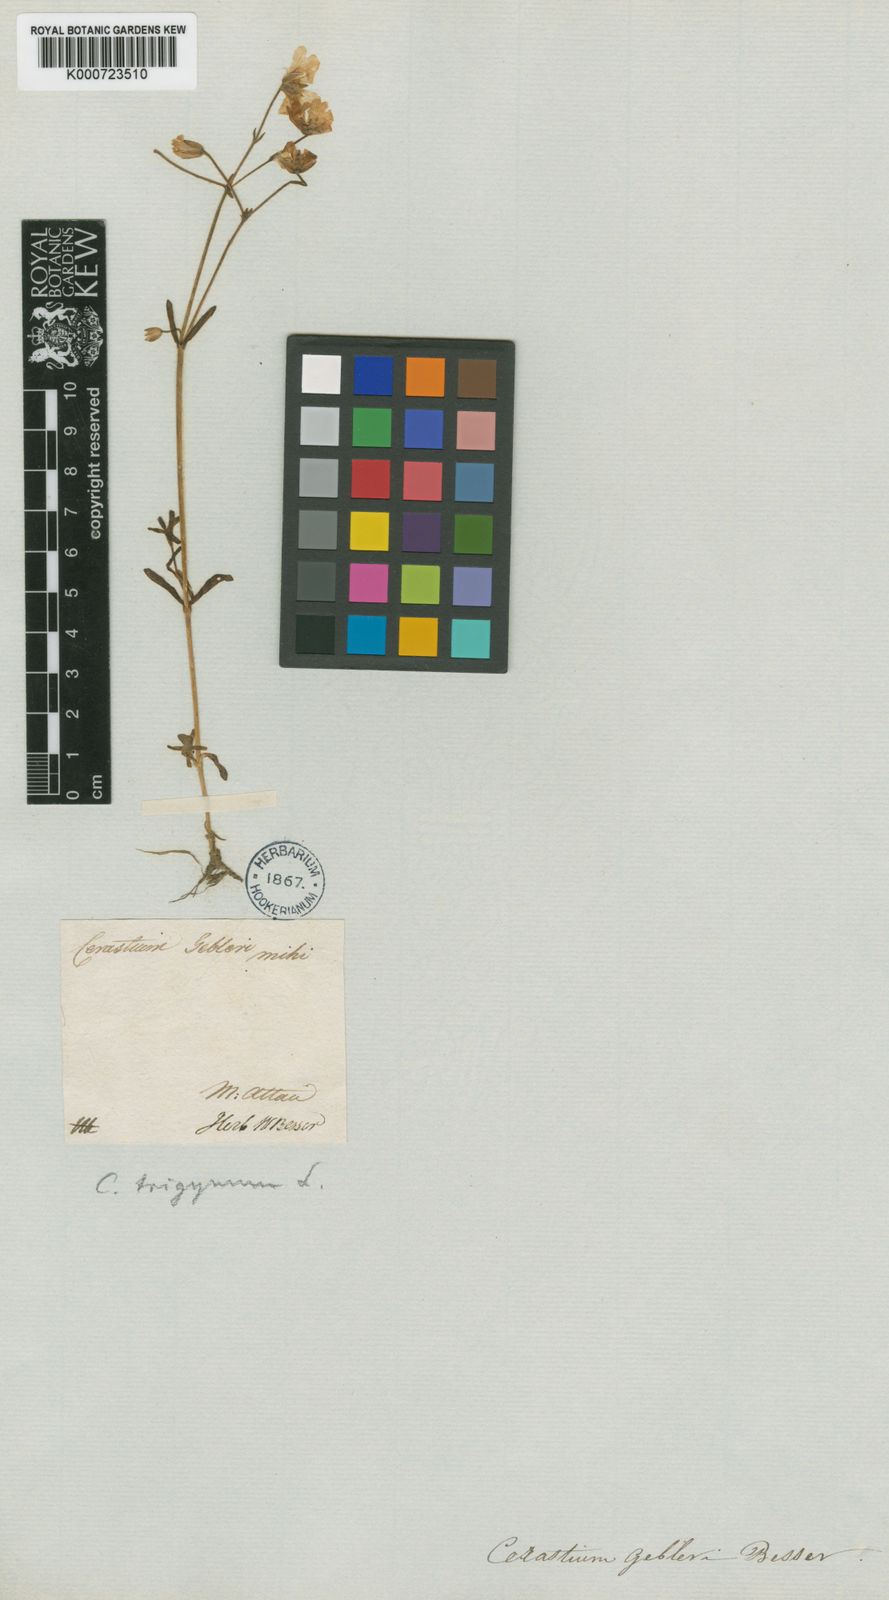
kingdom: Plantae
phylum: Tracheophyta
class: Magnoliopsida
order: Caryophyllales
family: Caryophyllaceae
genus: Cerastium
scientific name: Cerastium
